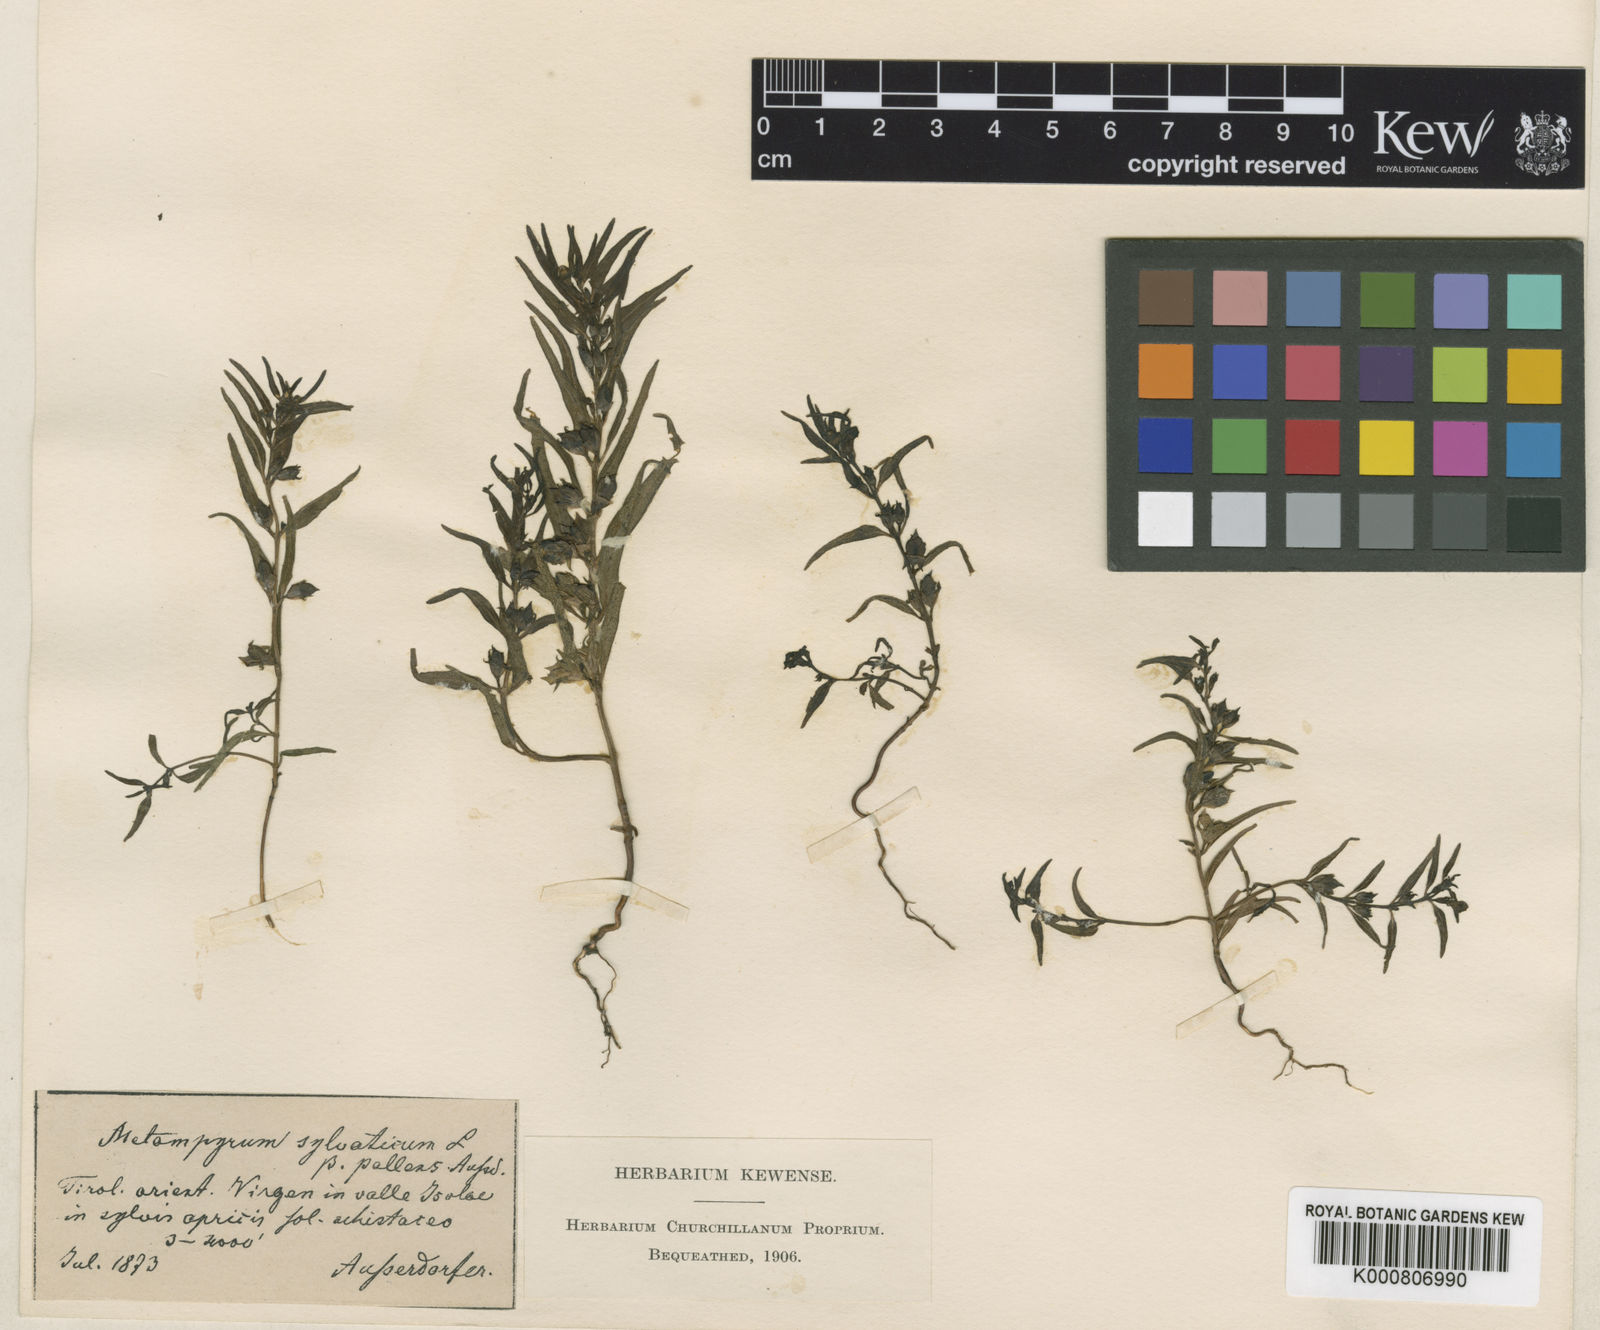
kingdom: Plantae
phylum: Tracheophyta
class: Magnoliopsida
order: Lamiales
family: Orobanchaceae
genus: Melampyrum
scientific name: Melampyrum saxosum
